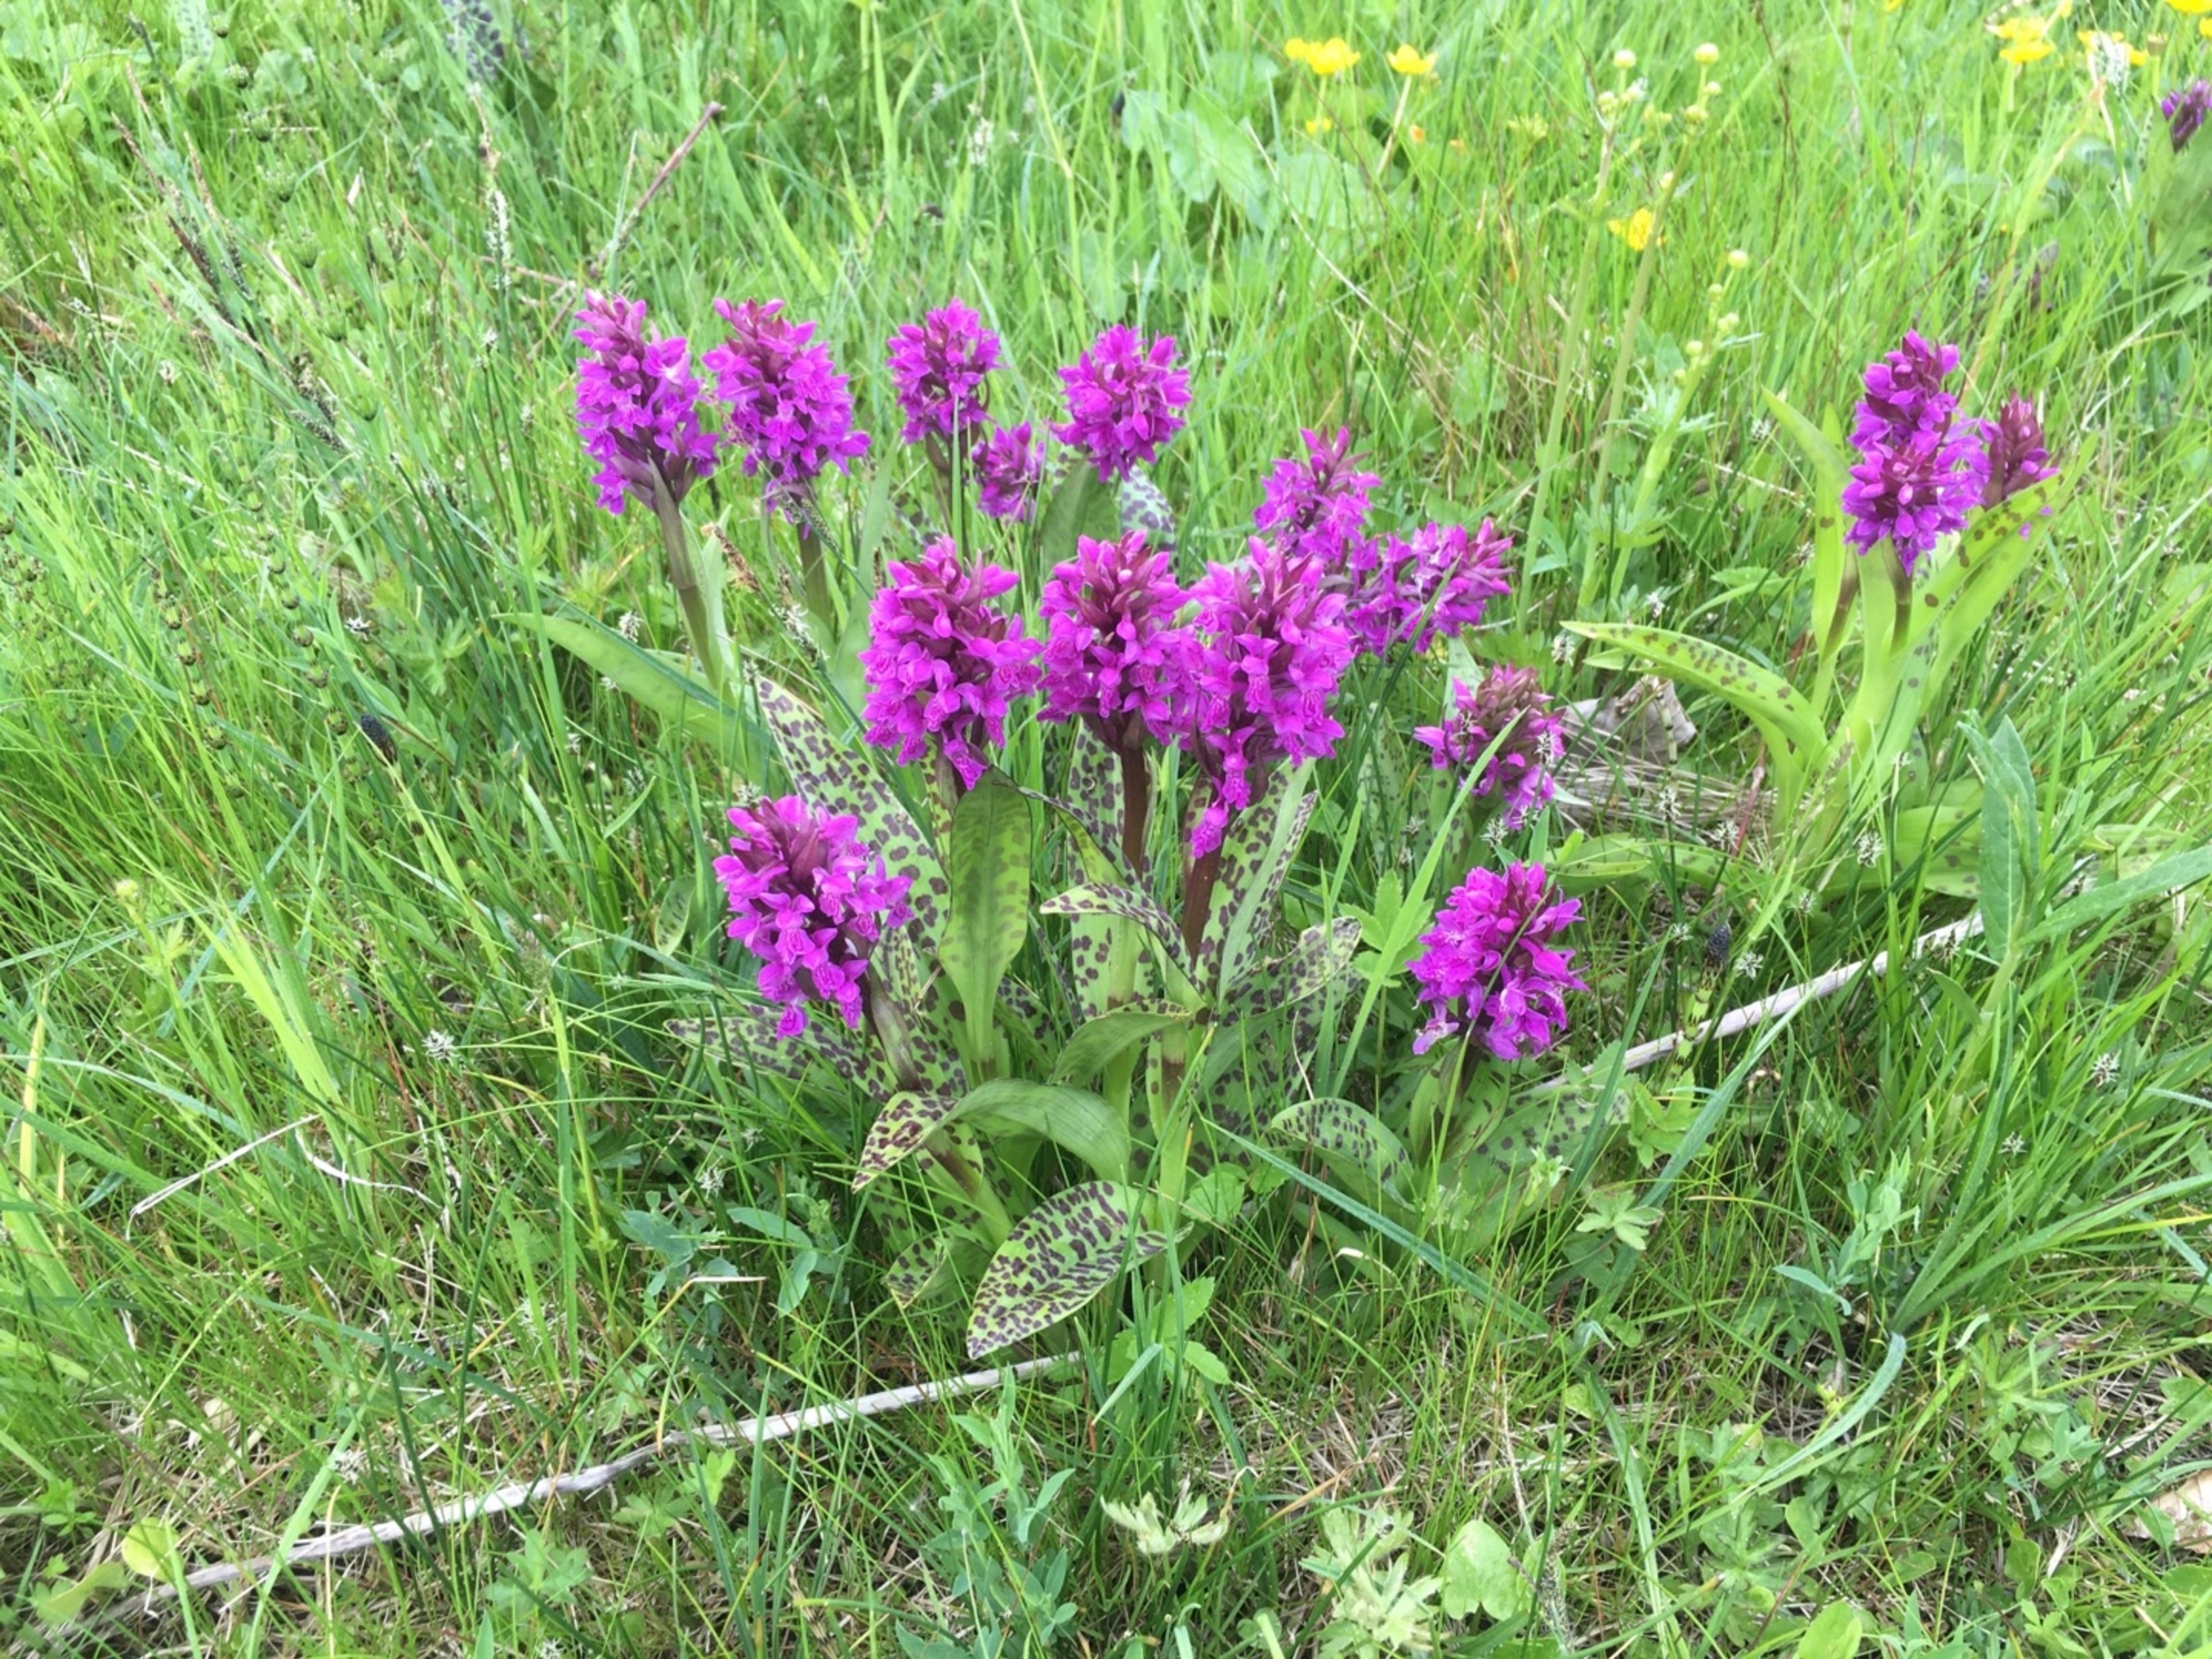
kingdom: Plantae
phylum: Tracheophyta
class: Liliopsida
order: Asparagales
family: Orchidaceae
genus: Dactylorhiza
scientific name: Dactylorhiza majalis
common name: Maj-gøgeurt
